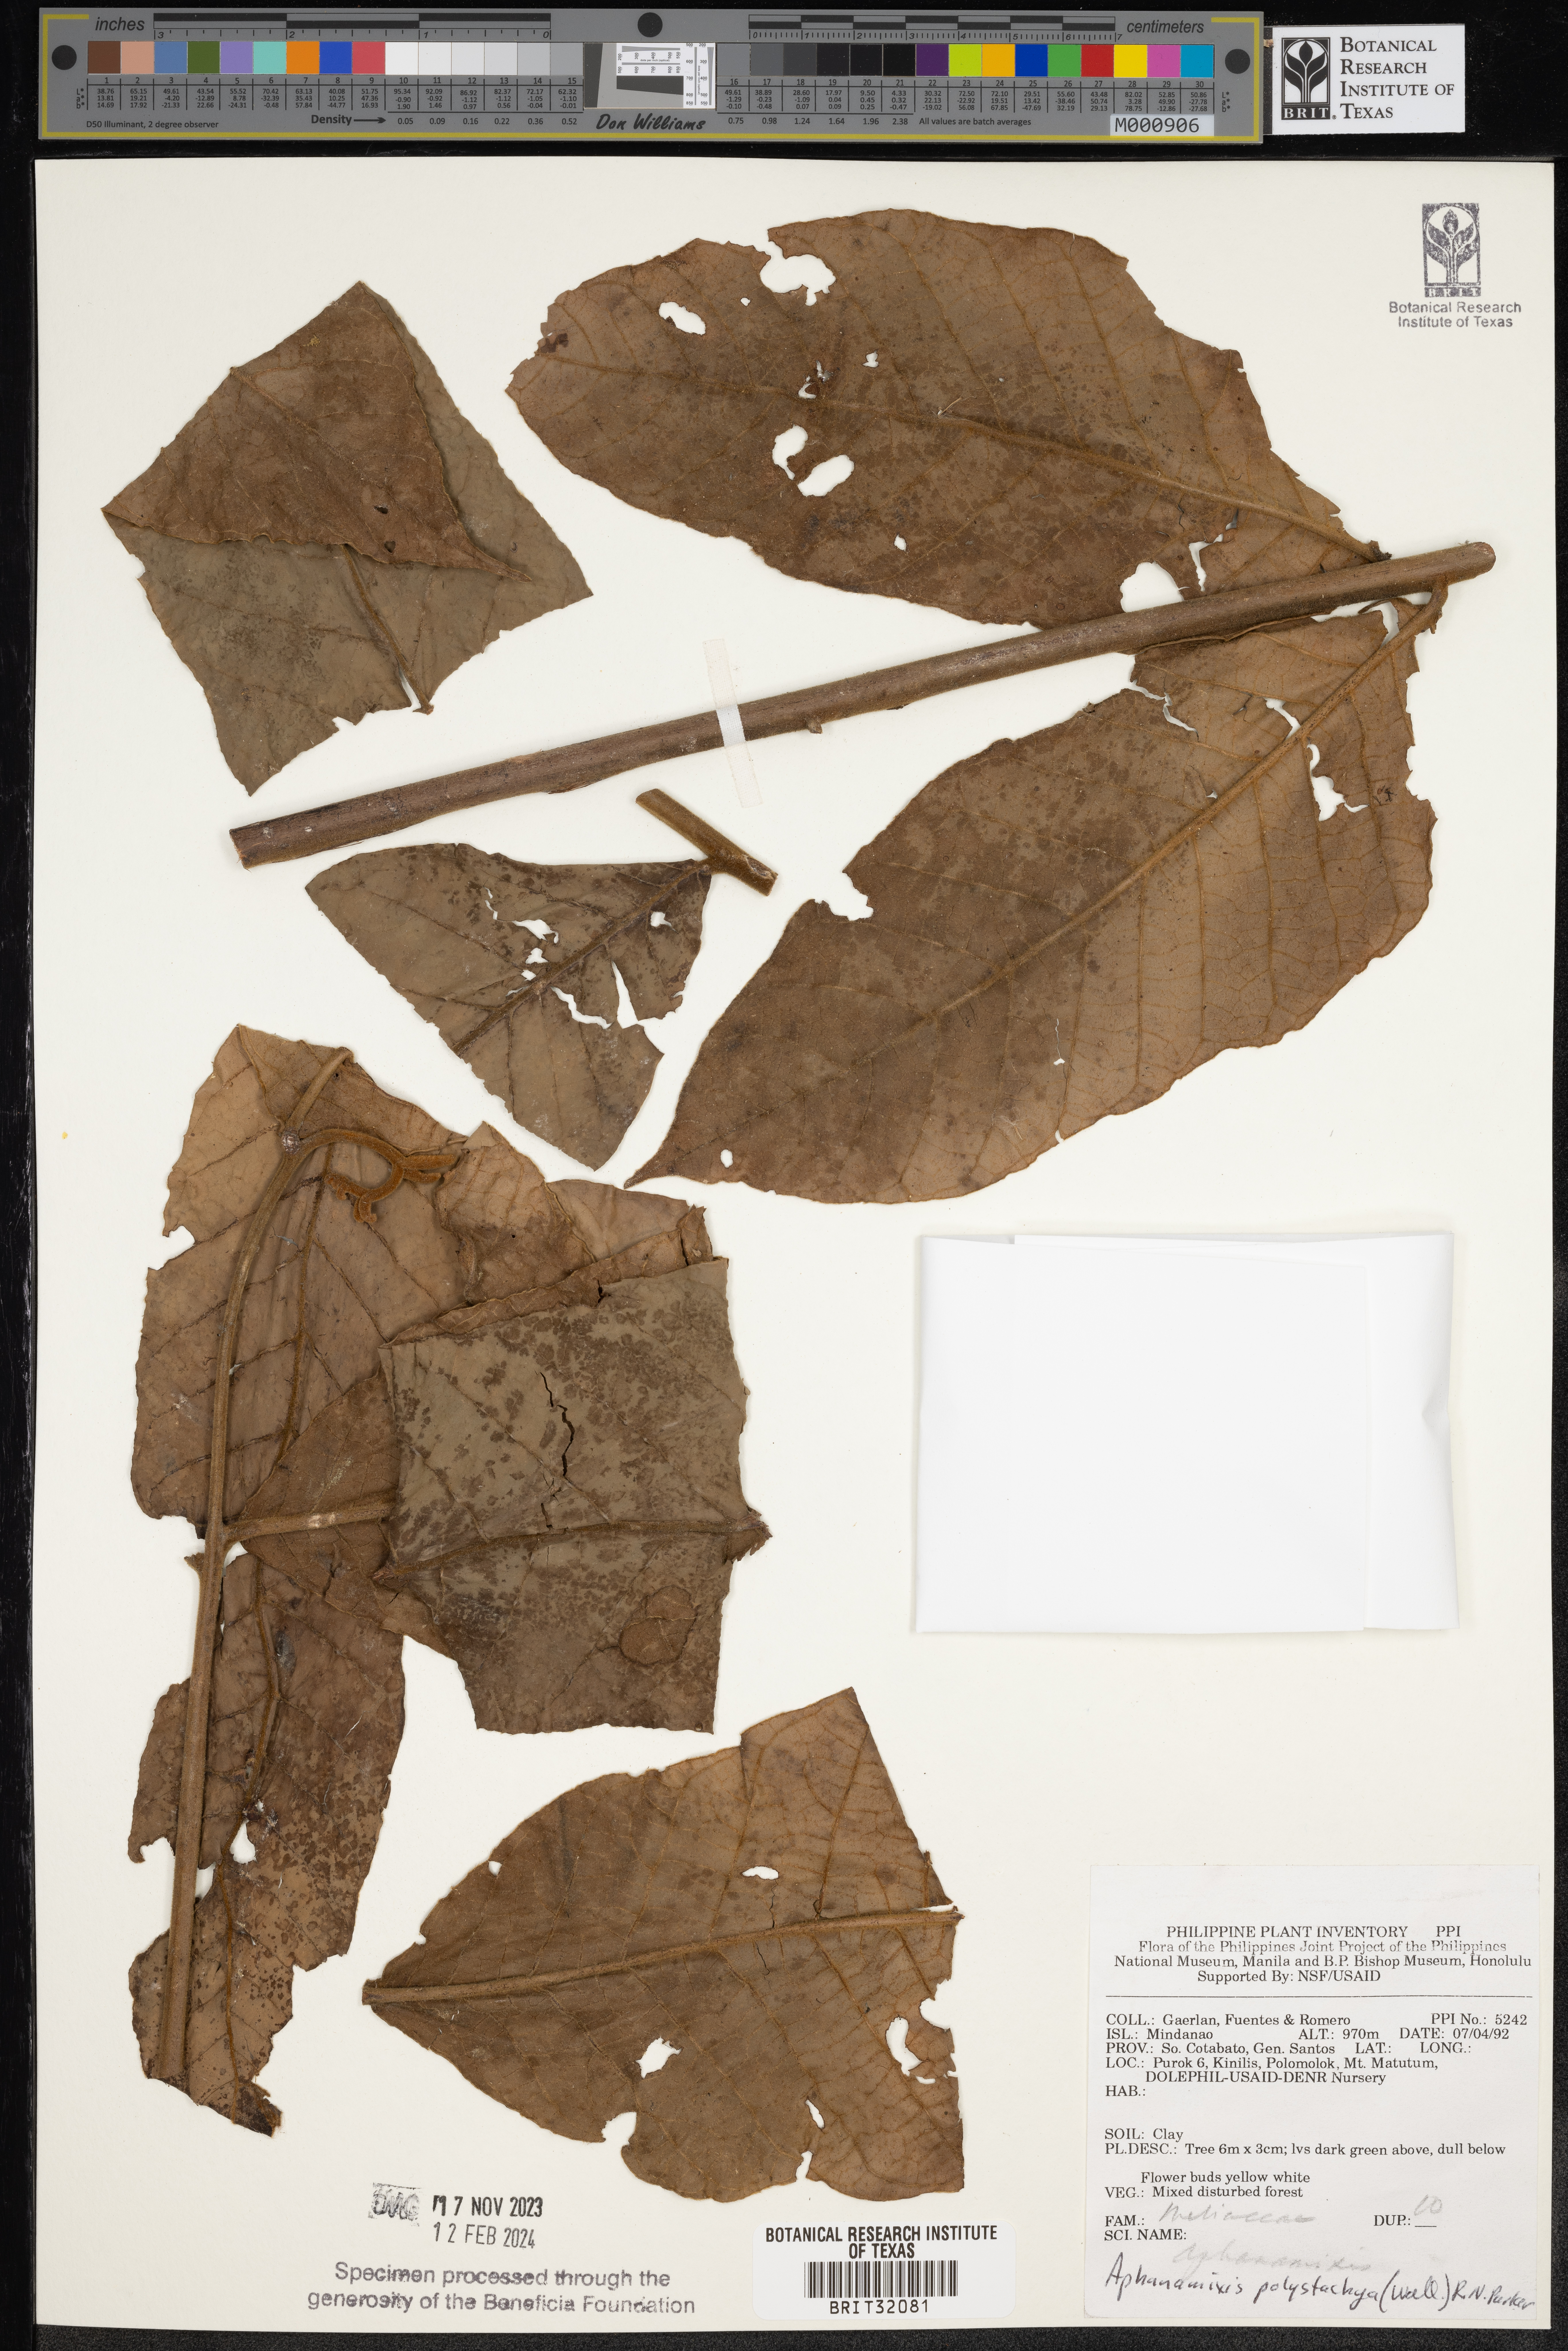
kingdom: Plantae
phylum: Tracheophyta
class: Magnoliopsida
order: Sapindales
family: Meliaceae
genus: Aphanamixis
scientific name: Aphanamixis polystachya
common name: Pithraj tree
